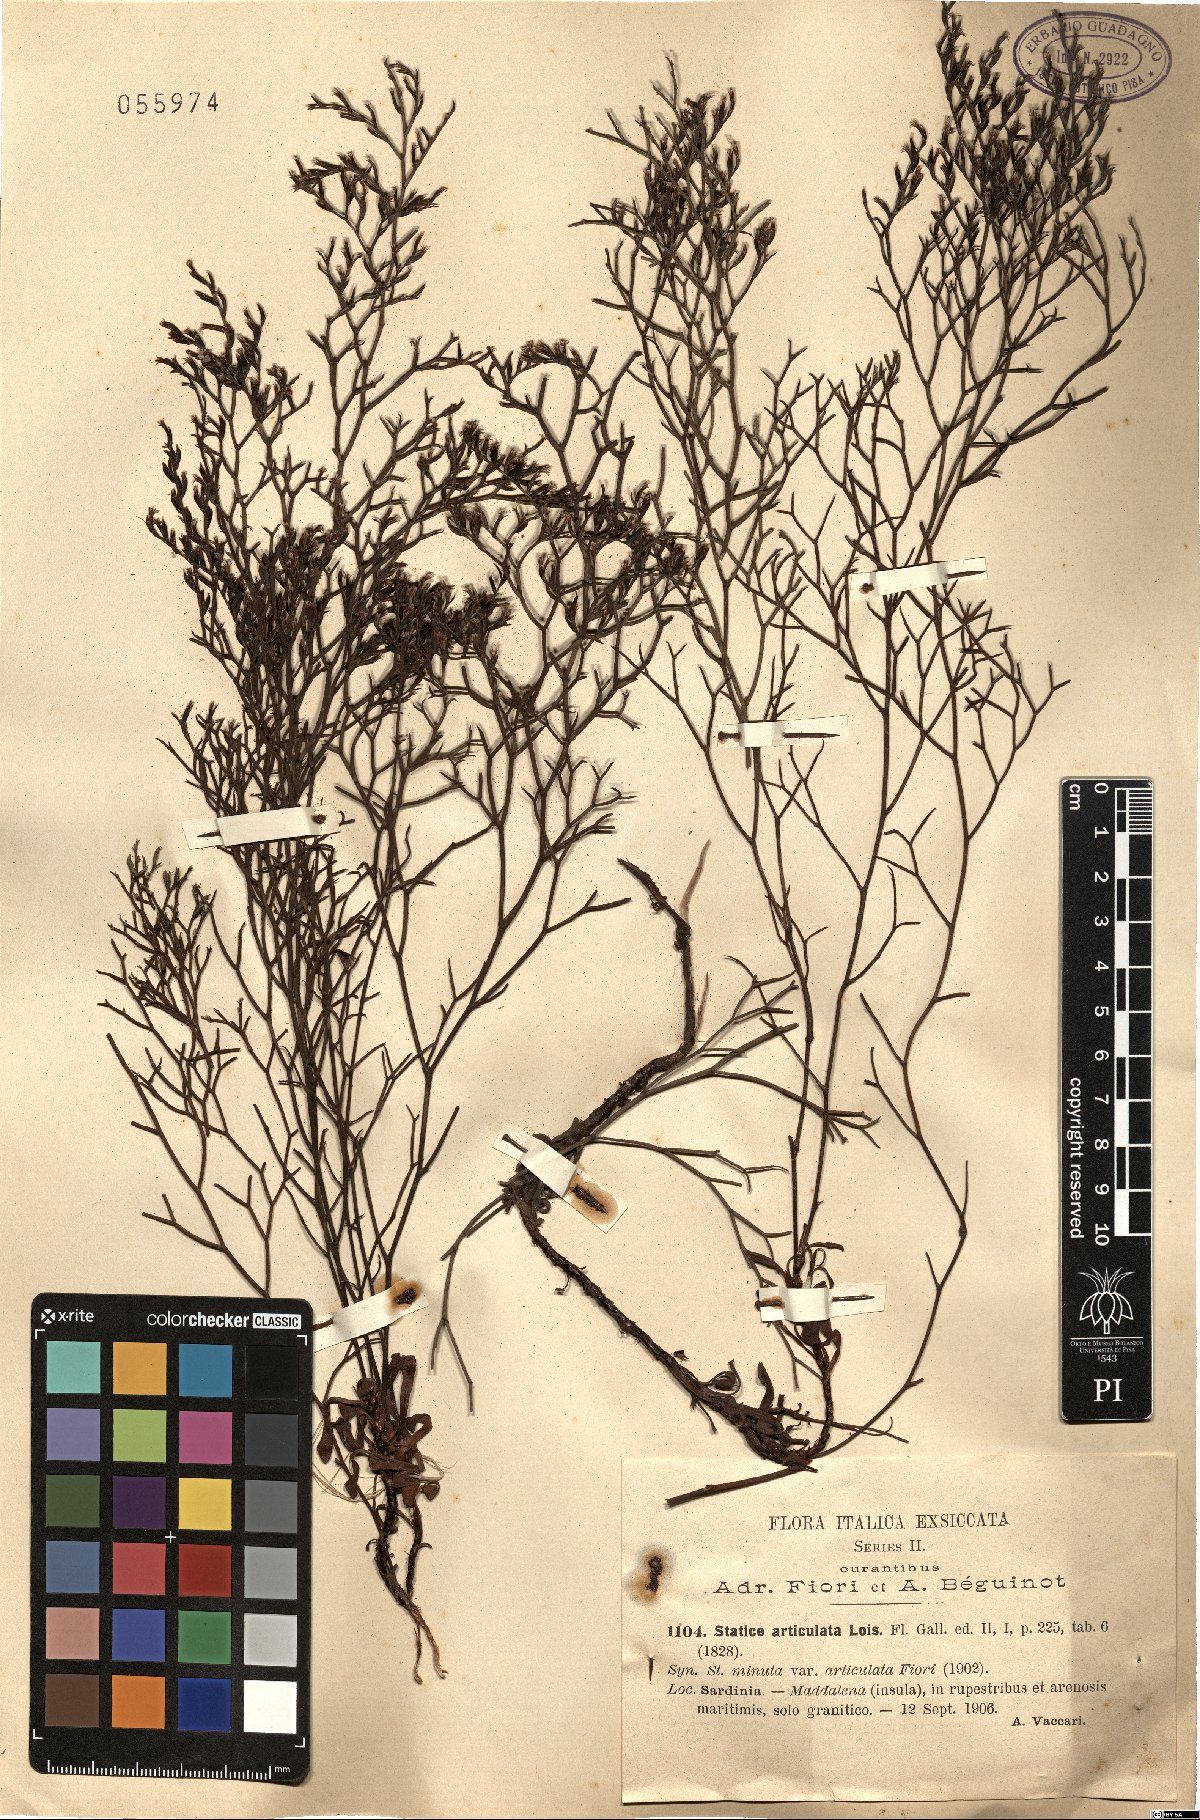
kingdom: Plantae
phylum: Tracheophyta
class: Magnoliopsida
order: Caryophyllales
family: Plumbaginaceae
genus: Limonium
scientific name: Limonium articulatum
